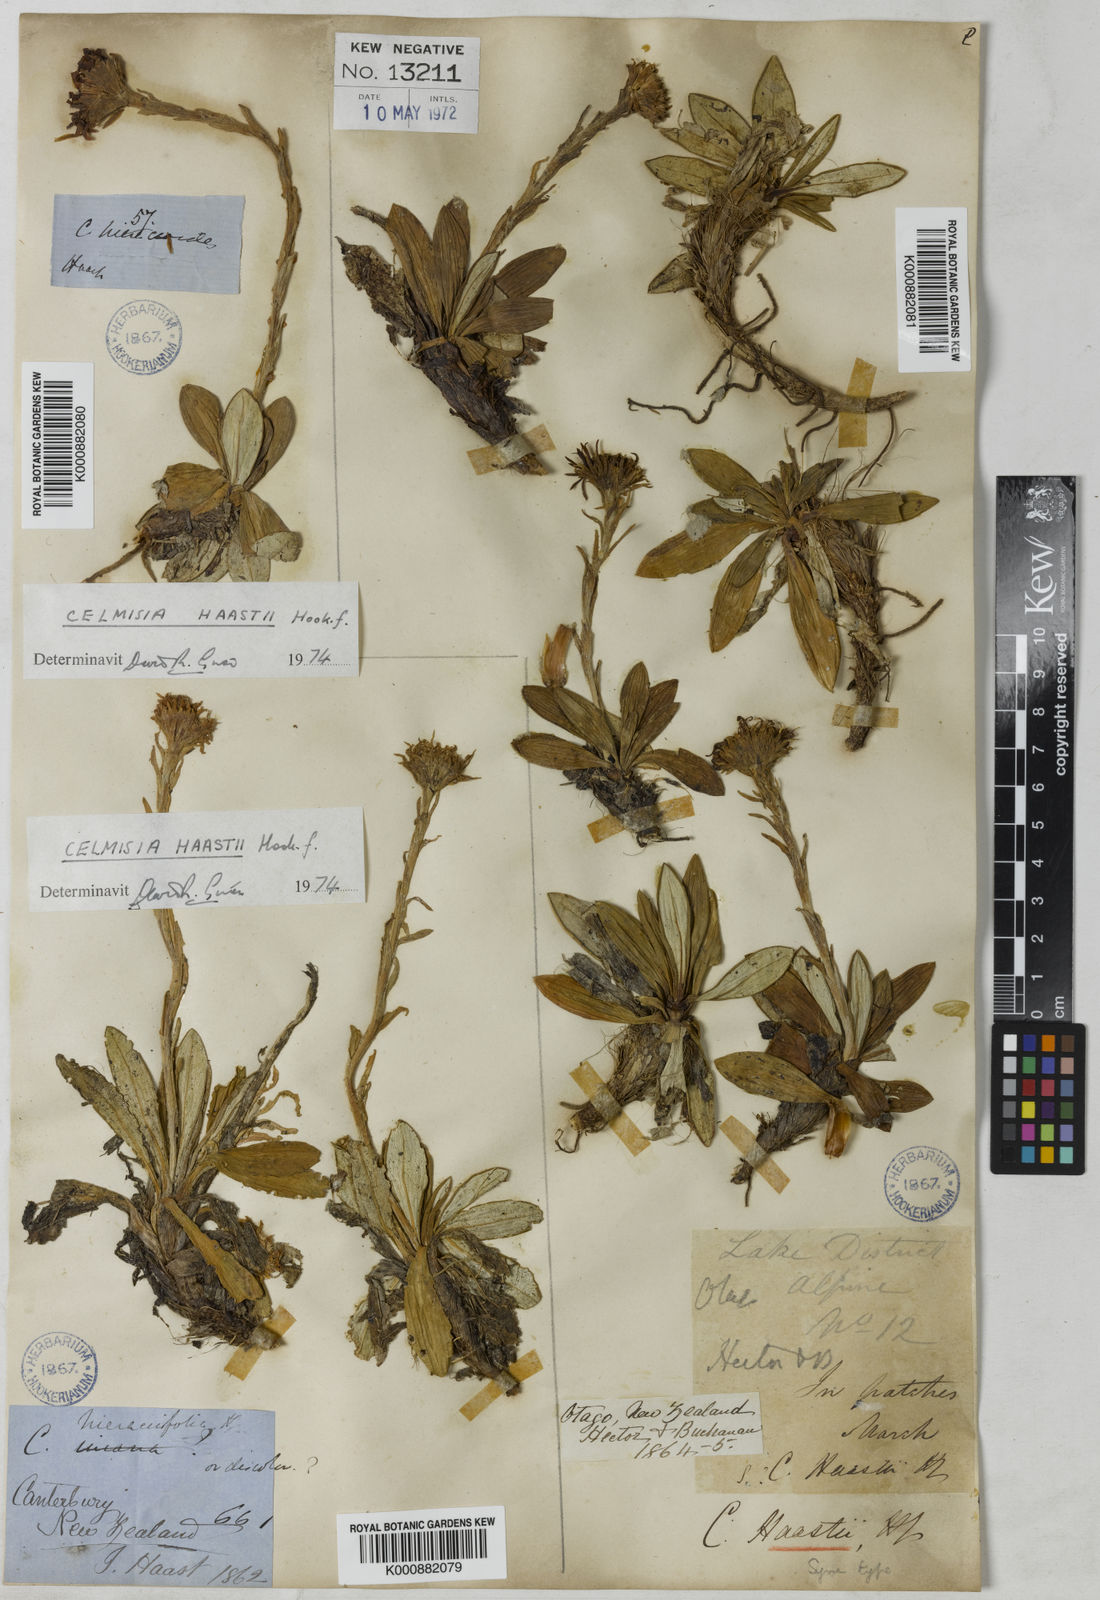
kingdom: Plantae
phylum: Tracheophyta
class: Magnoliopsida
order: Asterales
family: Asteraceae
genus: Celmisia
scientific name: Celmisia haastii
